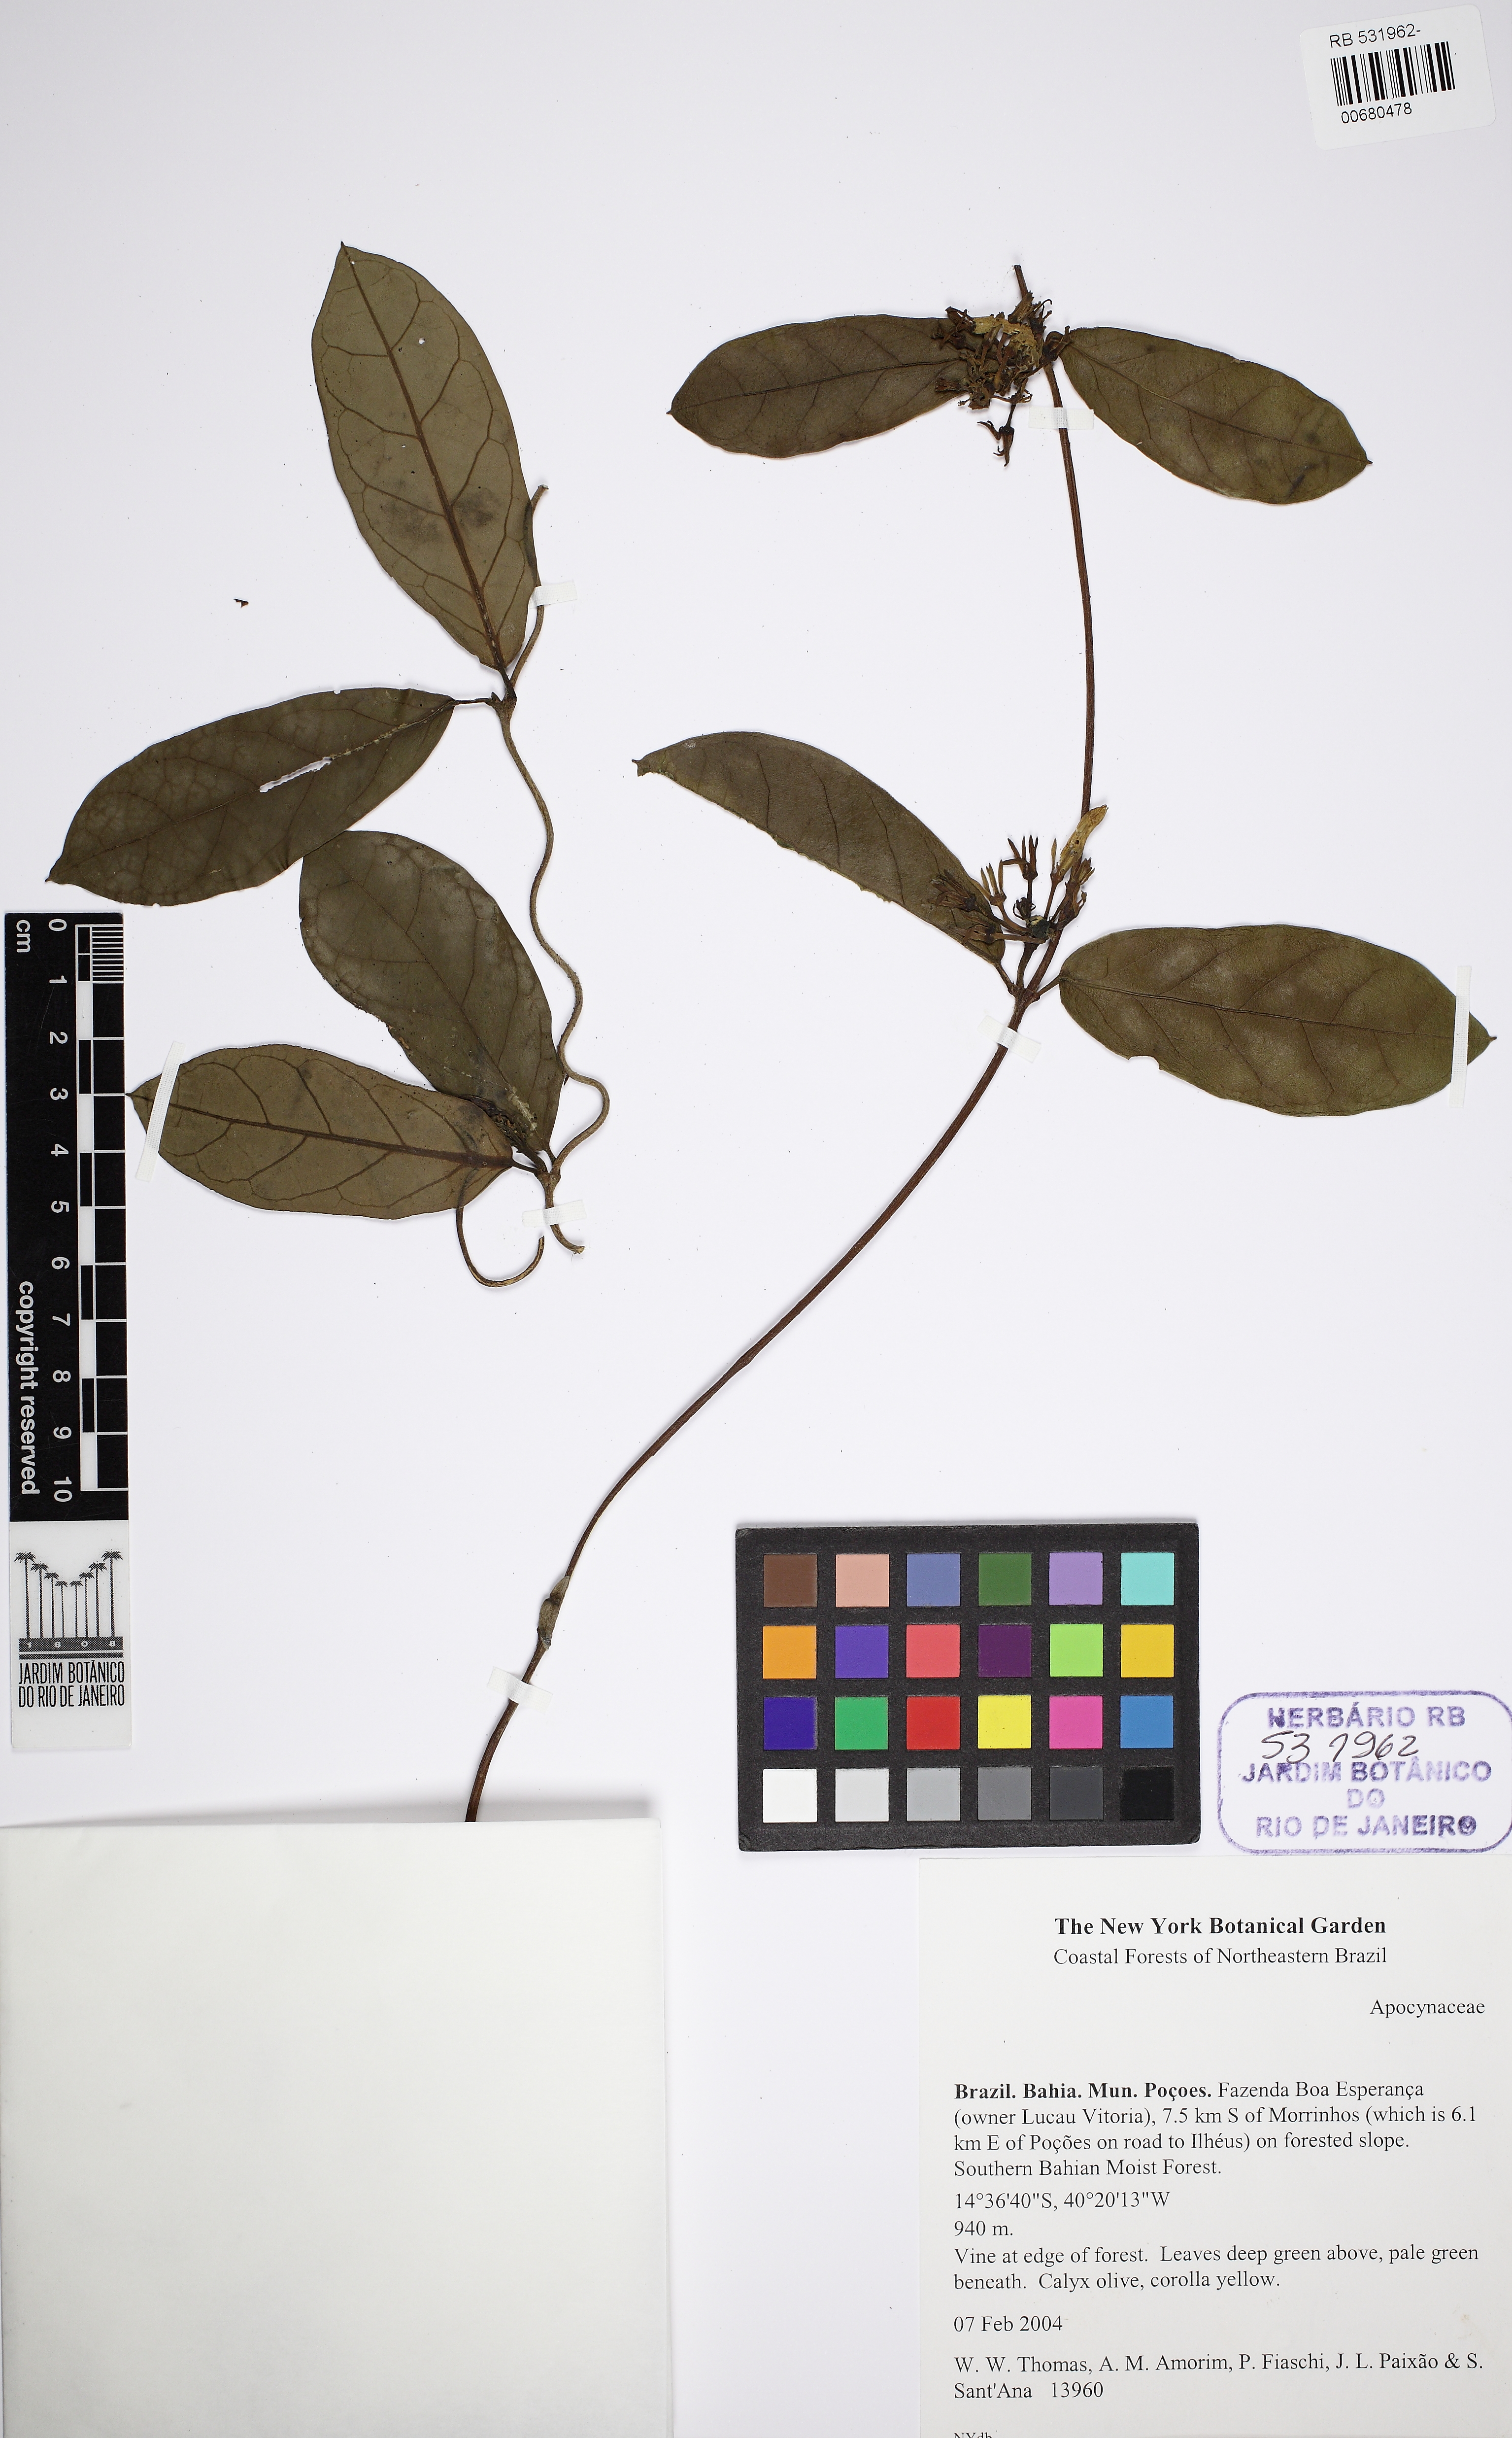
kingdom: Plantae
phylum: Tracheophyta
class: Magnoliopsida
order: Gentianales
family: Apocynaceae
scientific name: Apocynaceae
